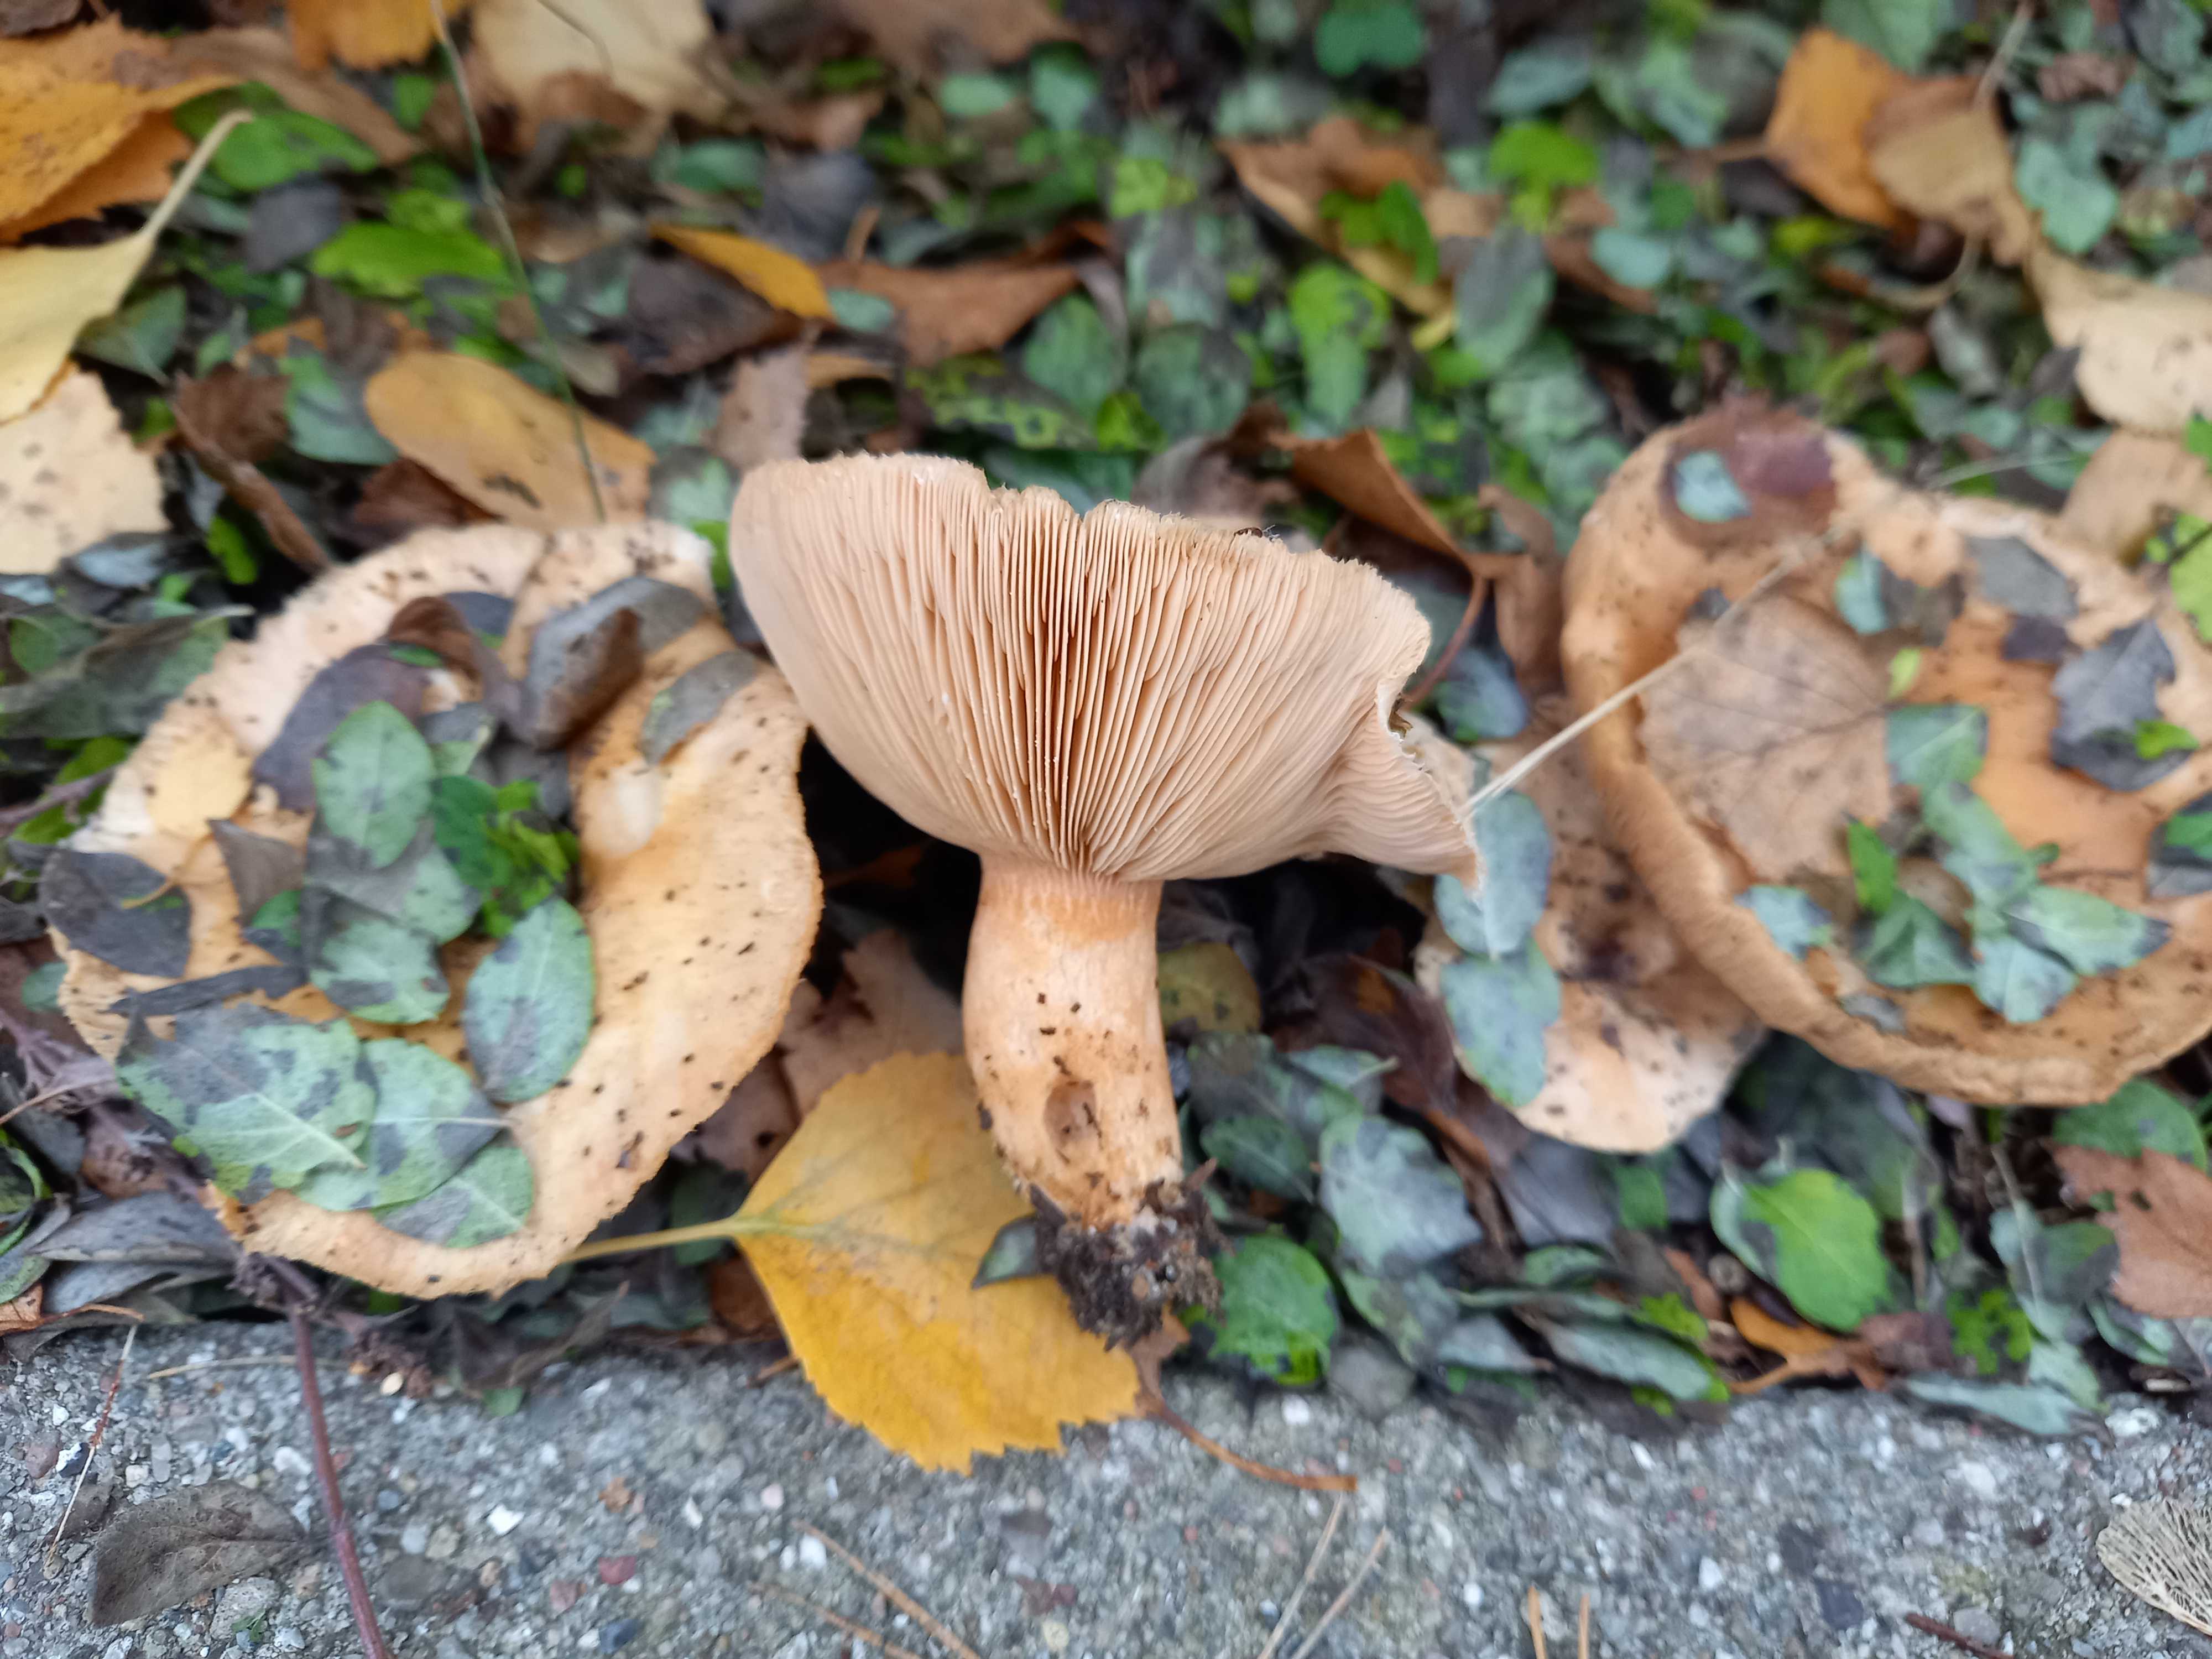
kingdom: Fungi
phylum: Basidiomycota
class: Agaricomycetes
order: Russulales
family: Russulaceae
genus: Lactarius
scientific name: Lactarius pubescens
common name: dunet mælkehat
